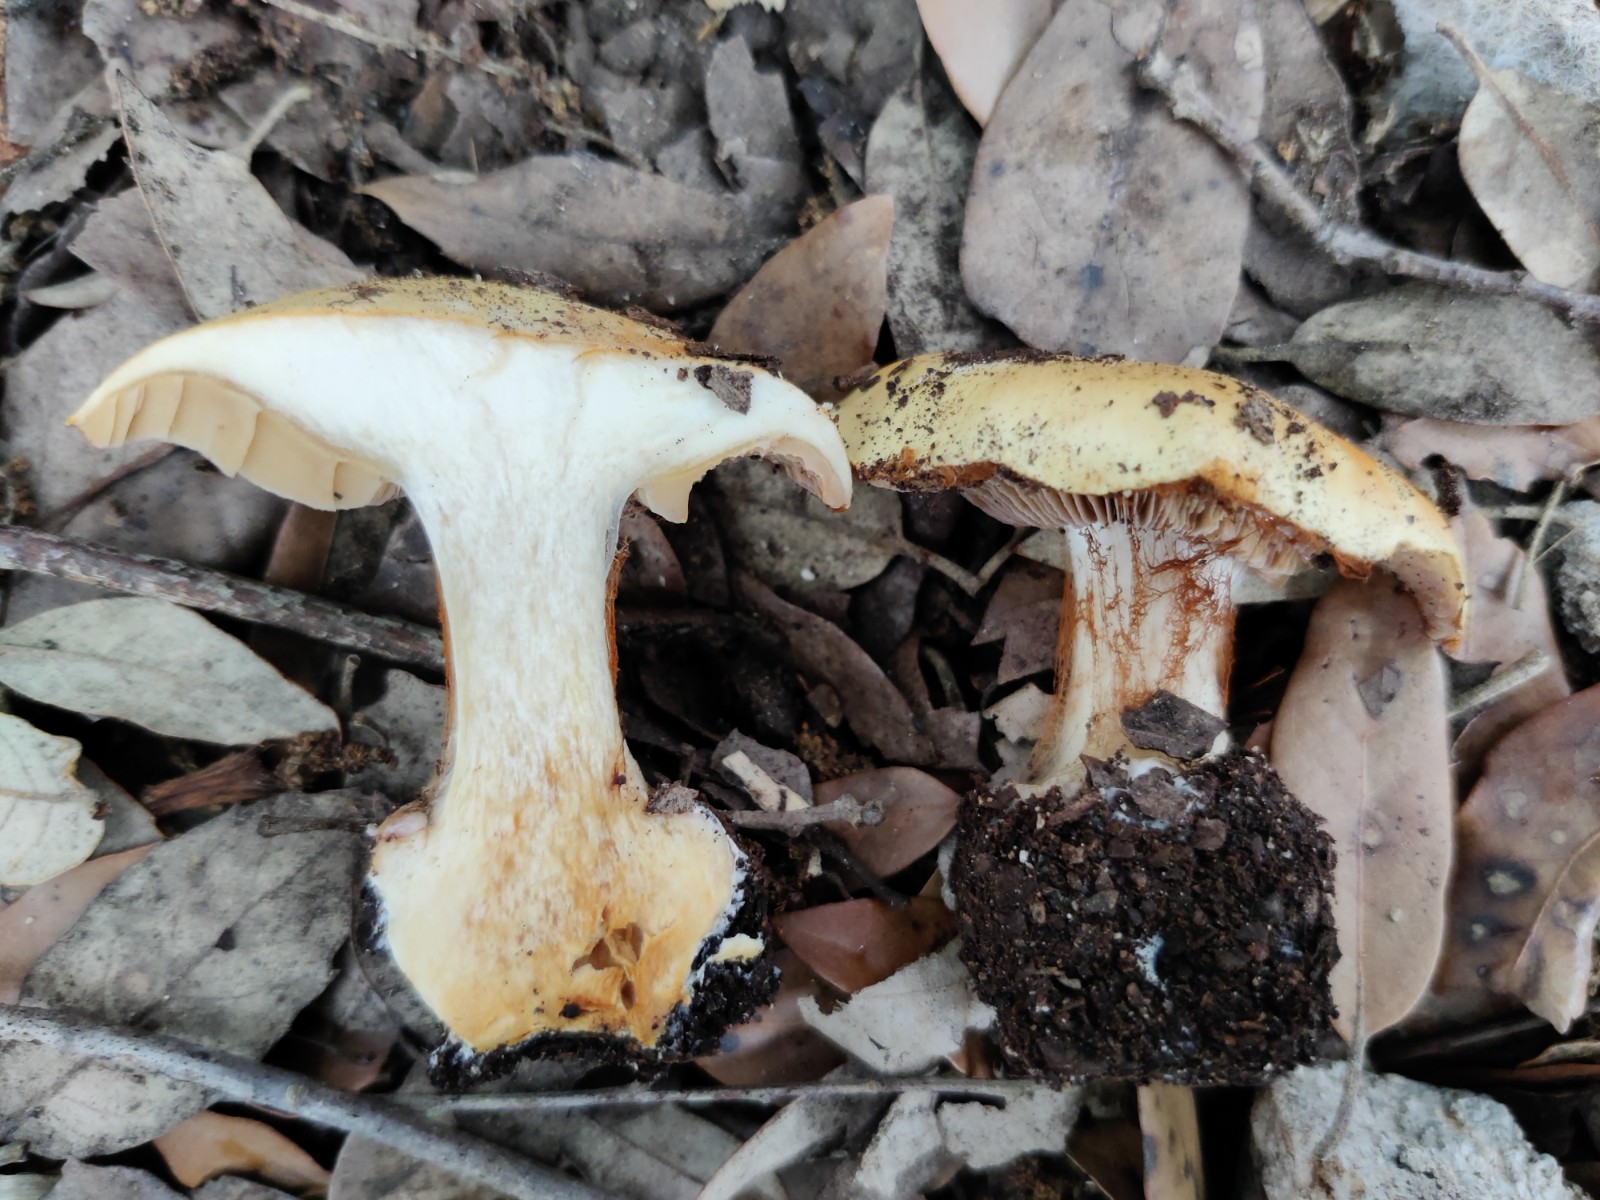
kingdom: Fungi
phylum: Basidiomycota
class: Agaricomycetes
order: Agaricales
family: Cortinariaceae
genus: Calonarius
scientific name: Calonarius humolens
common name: radise-slørhat
